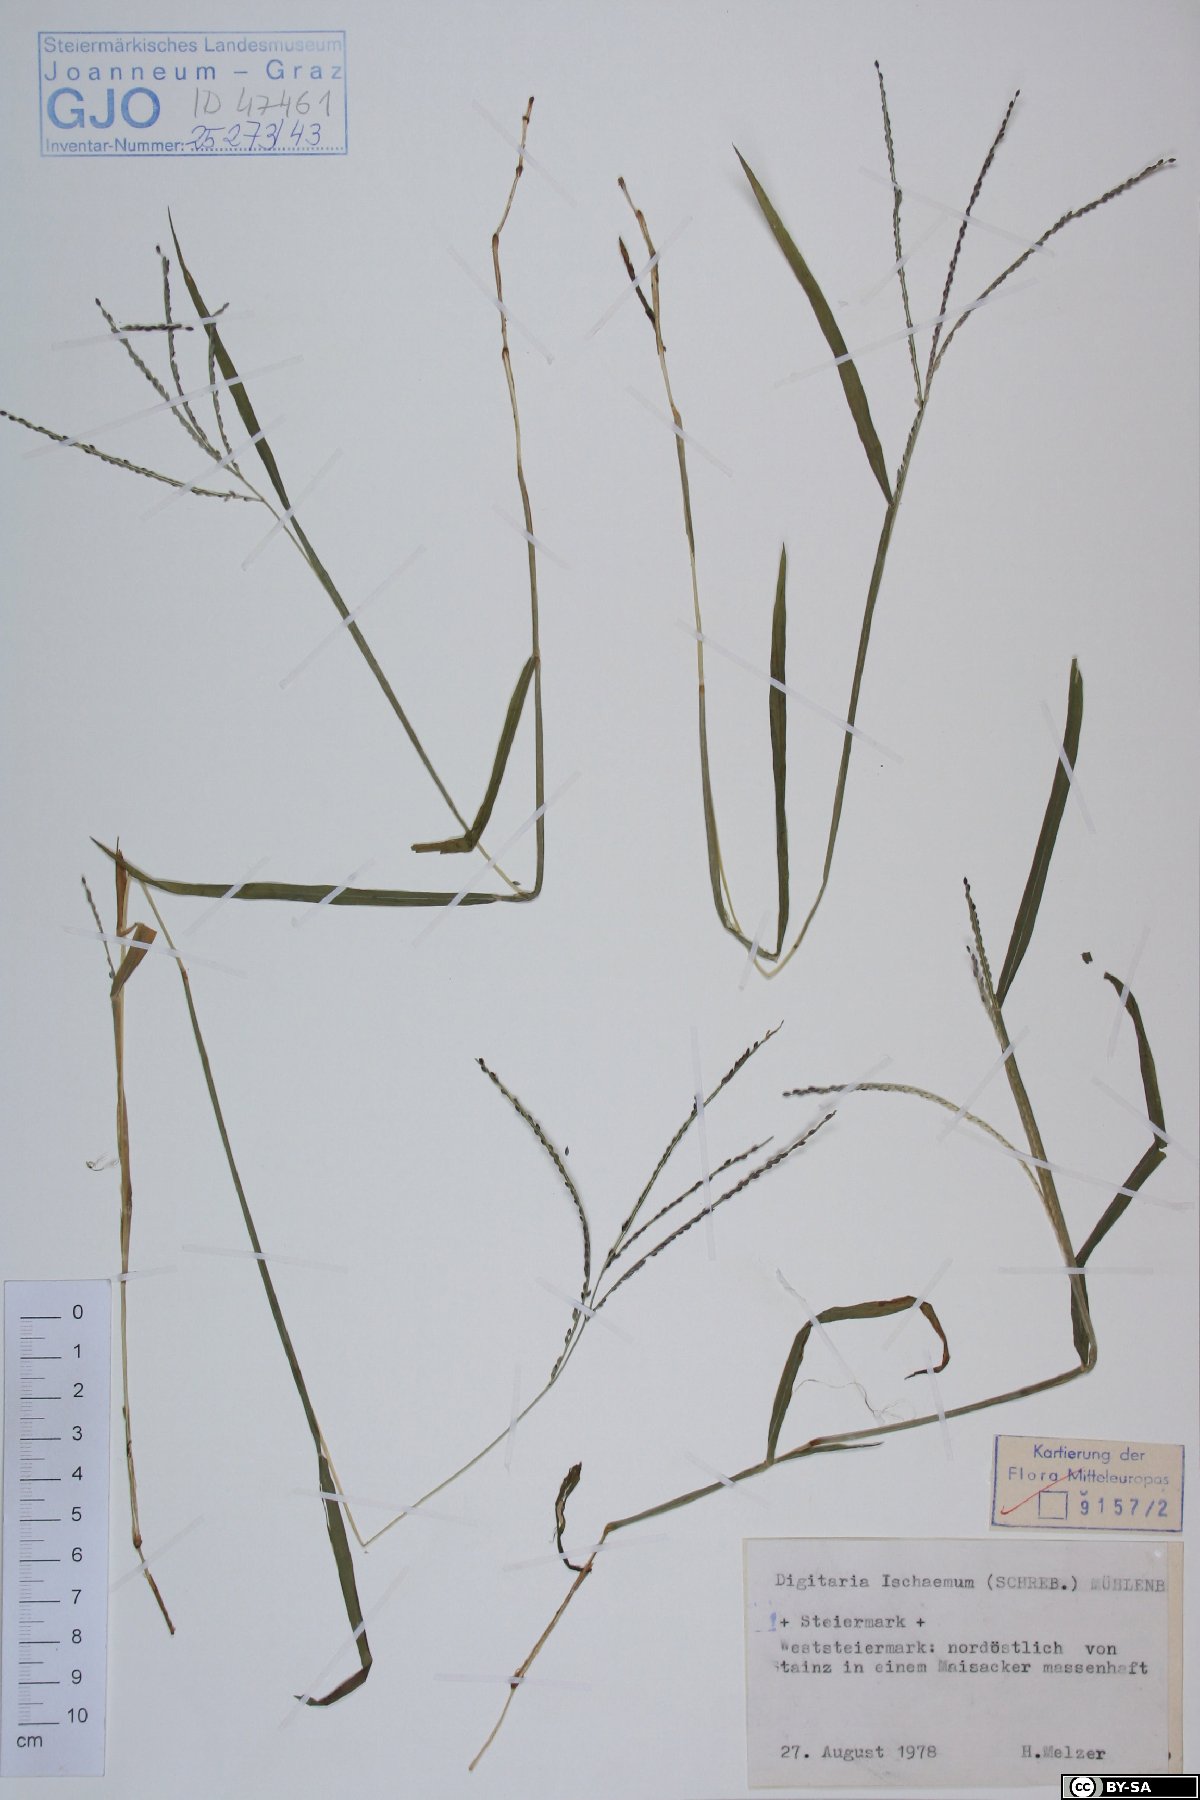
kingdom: Plantae
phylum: Tracheophyta
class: Liliopsida
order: Poales
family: Poaceae
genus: Digitaria
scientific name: Digitaria ischaemum
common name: Smooth crabgrass
